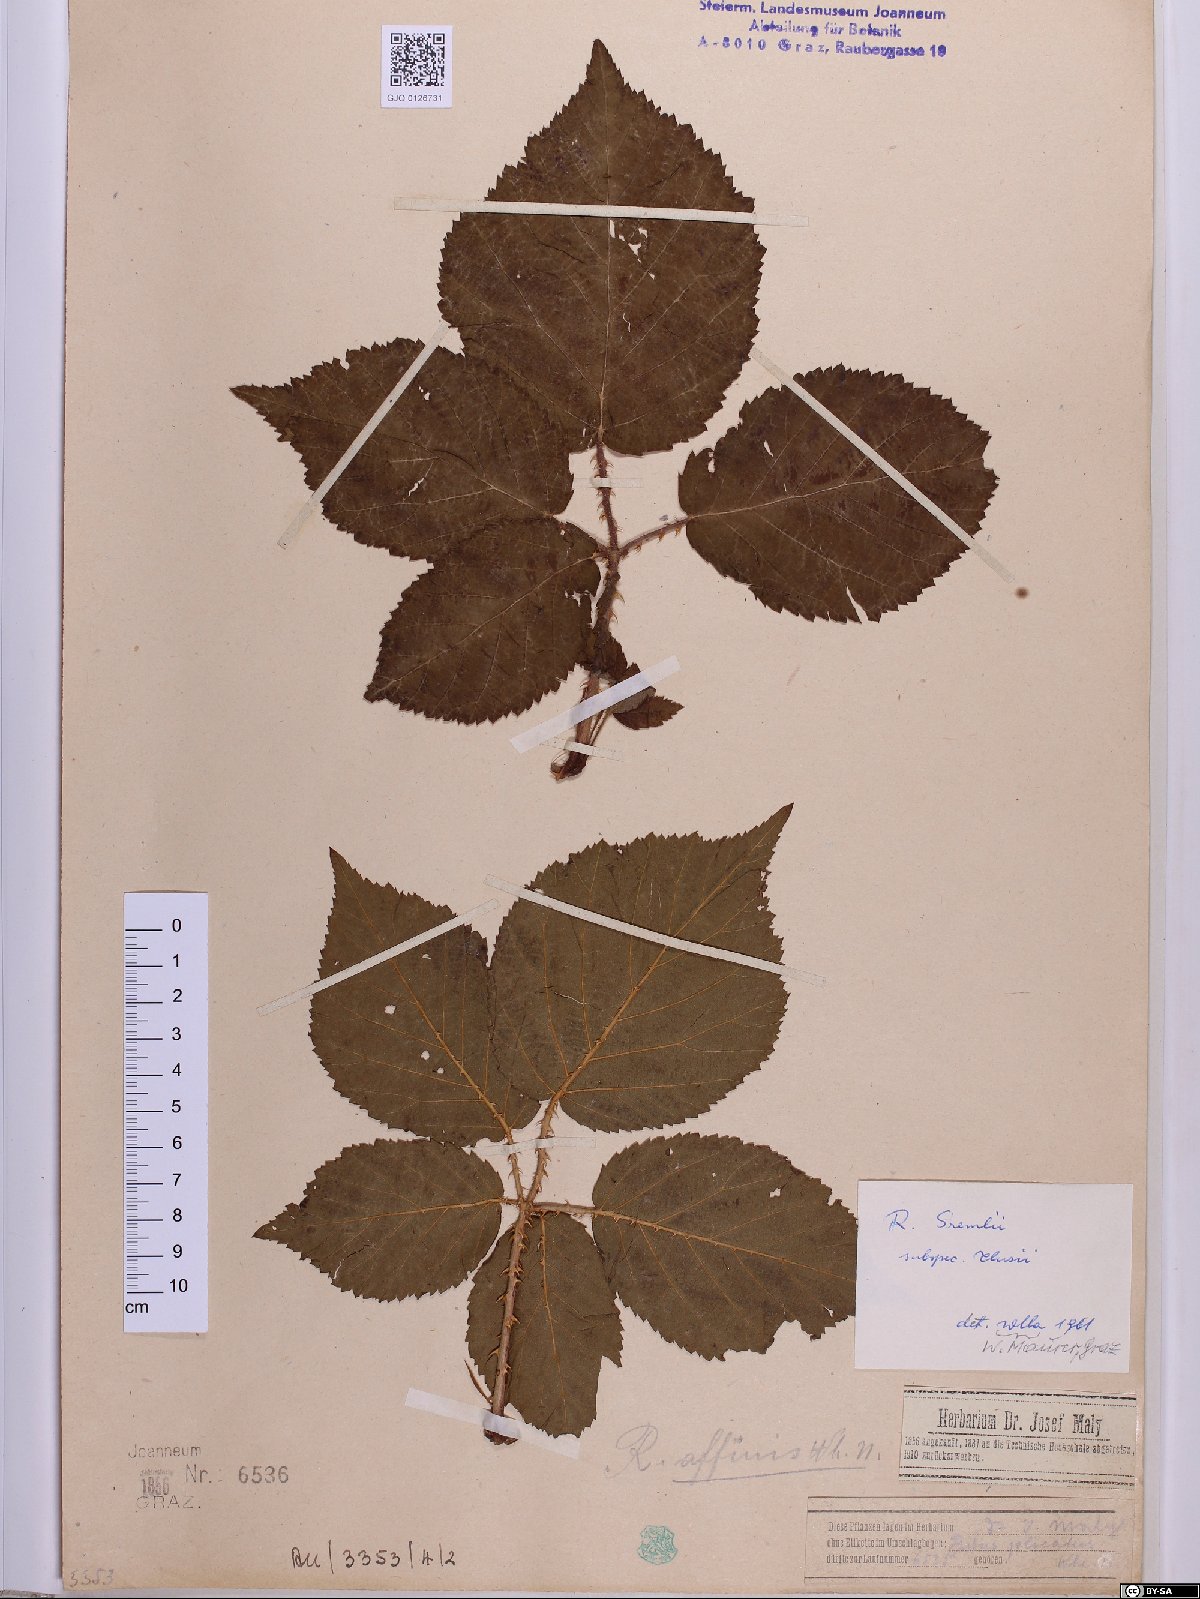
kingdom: Plantae
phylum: Tracheophyta
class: Magnoliopsida
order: Rosales
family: Rosaceae
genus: Rubus
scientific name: Rubus clusii
